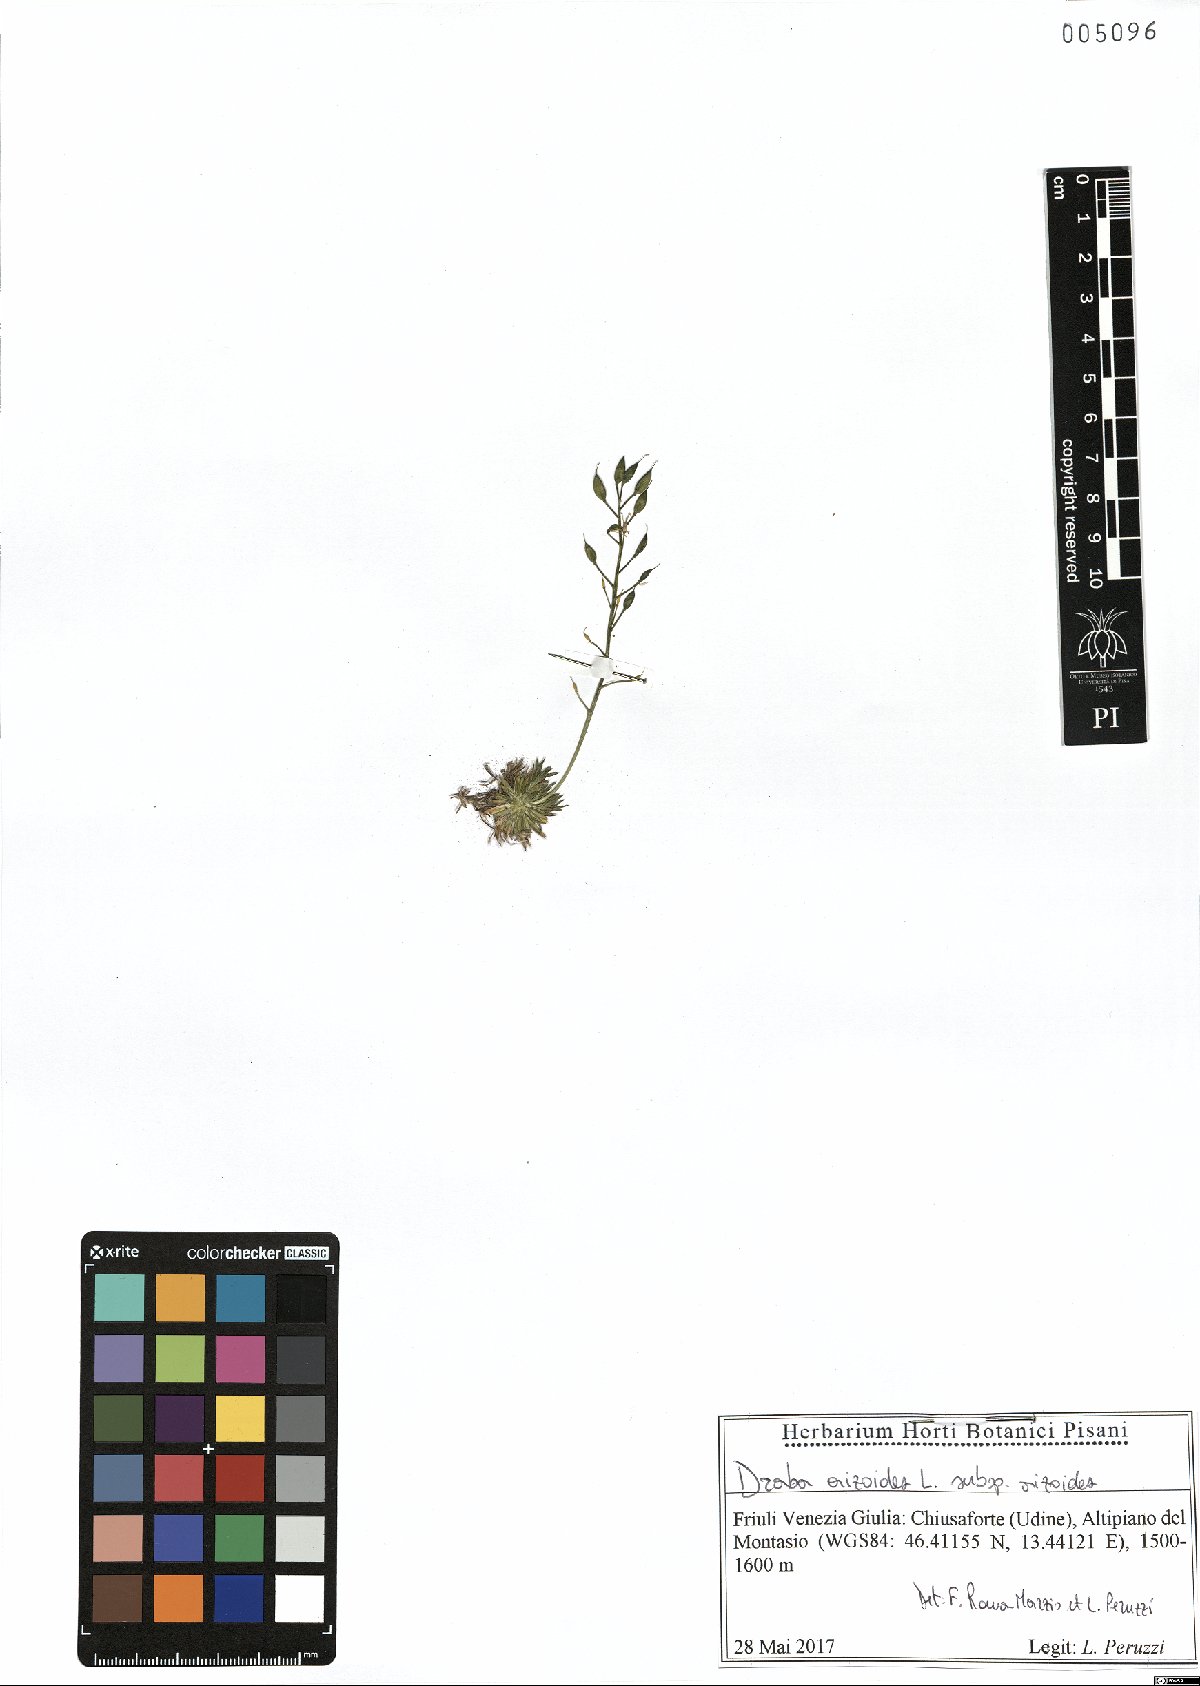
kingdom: Plantae
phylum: Tracheophyta
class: Magnoliopsida
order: Brassicales
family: Brassicaceae
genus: Draba
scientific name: Draba aizoides
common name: Yellow whitlowgrass
